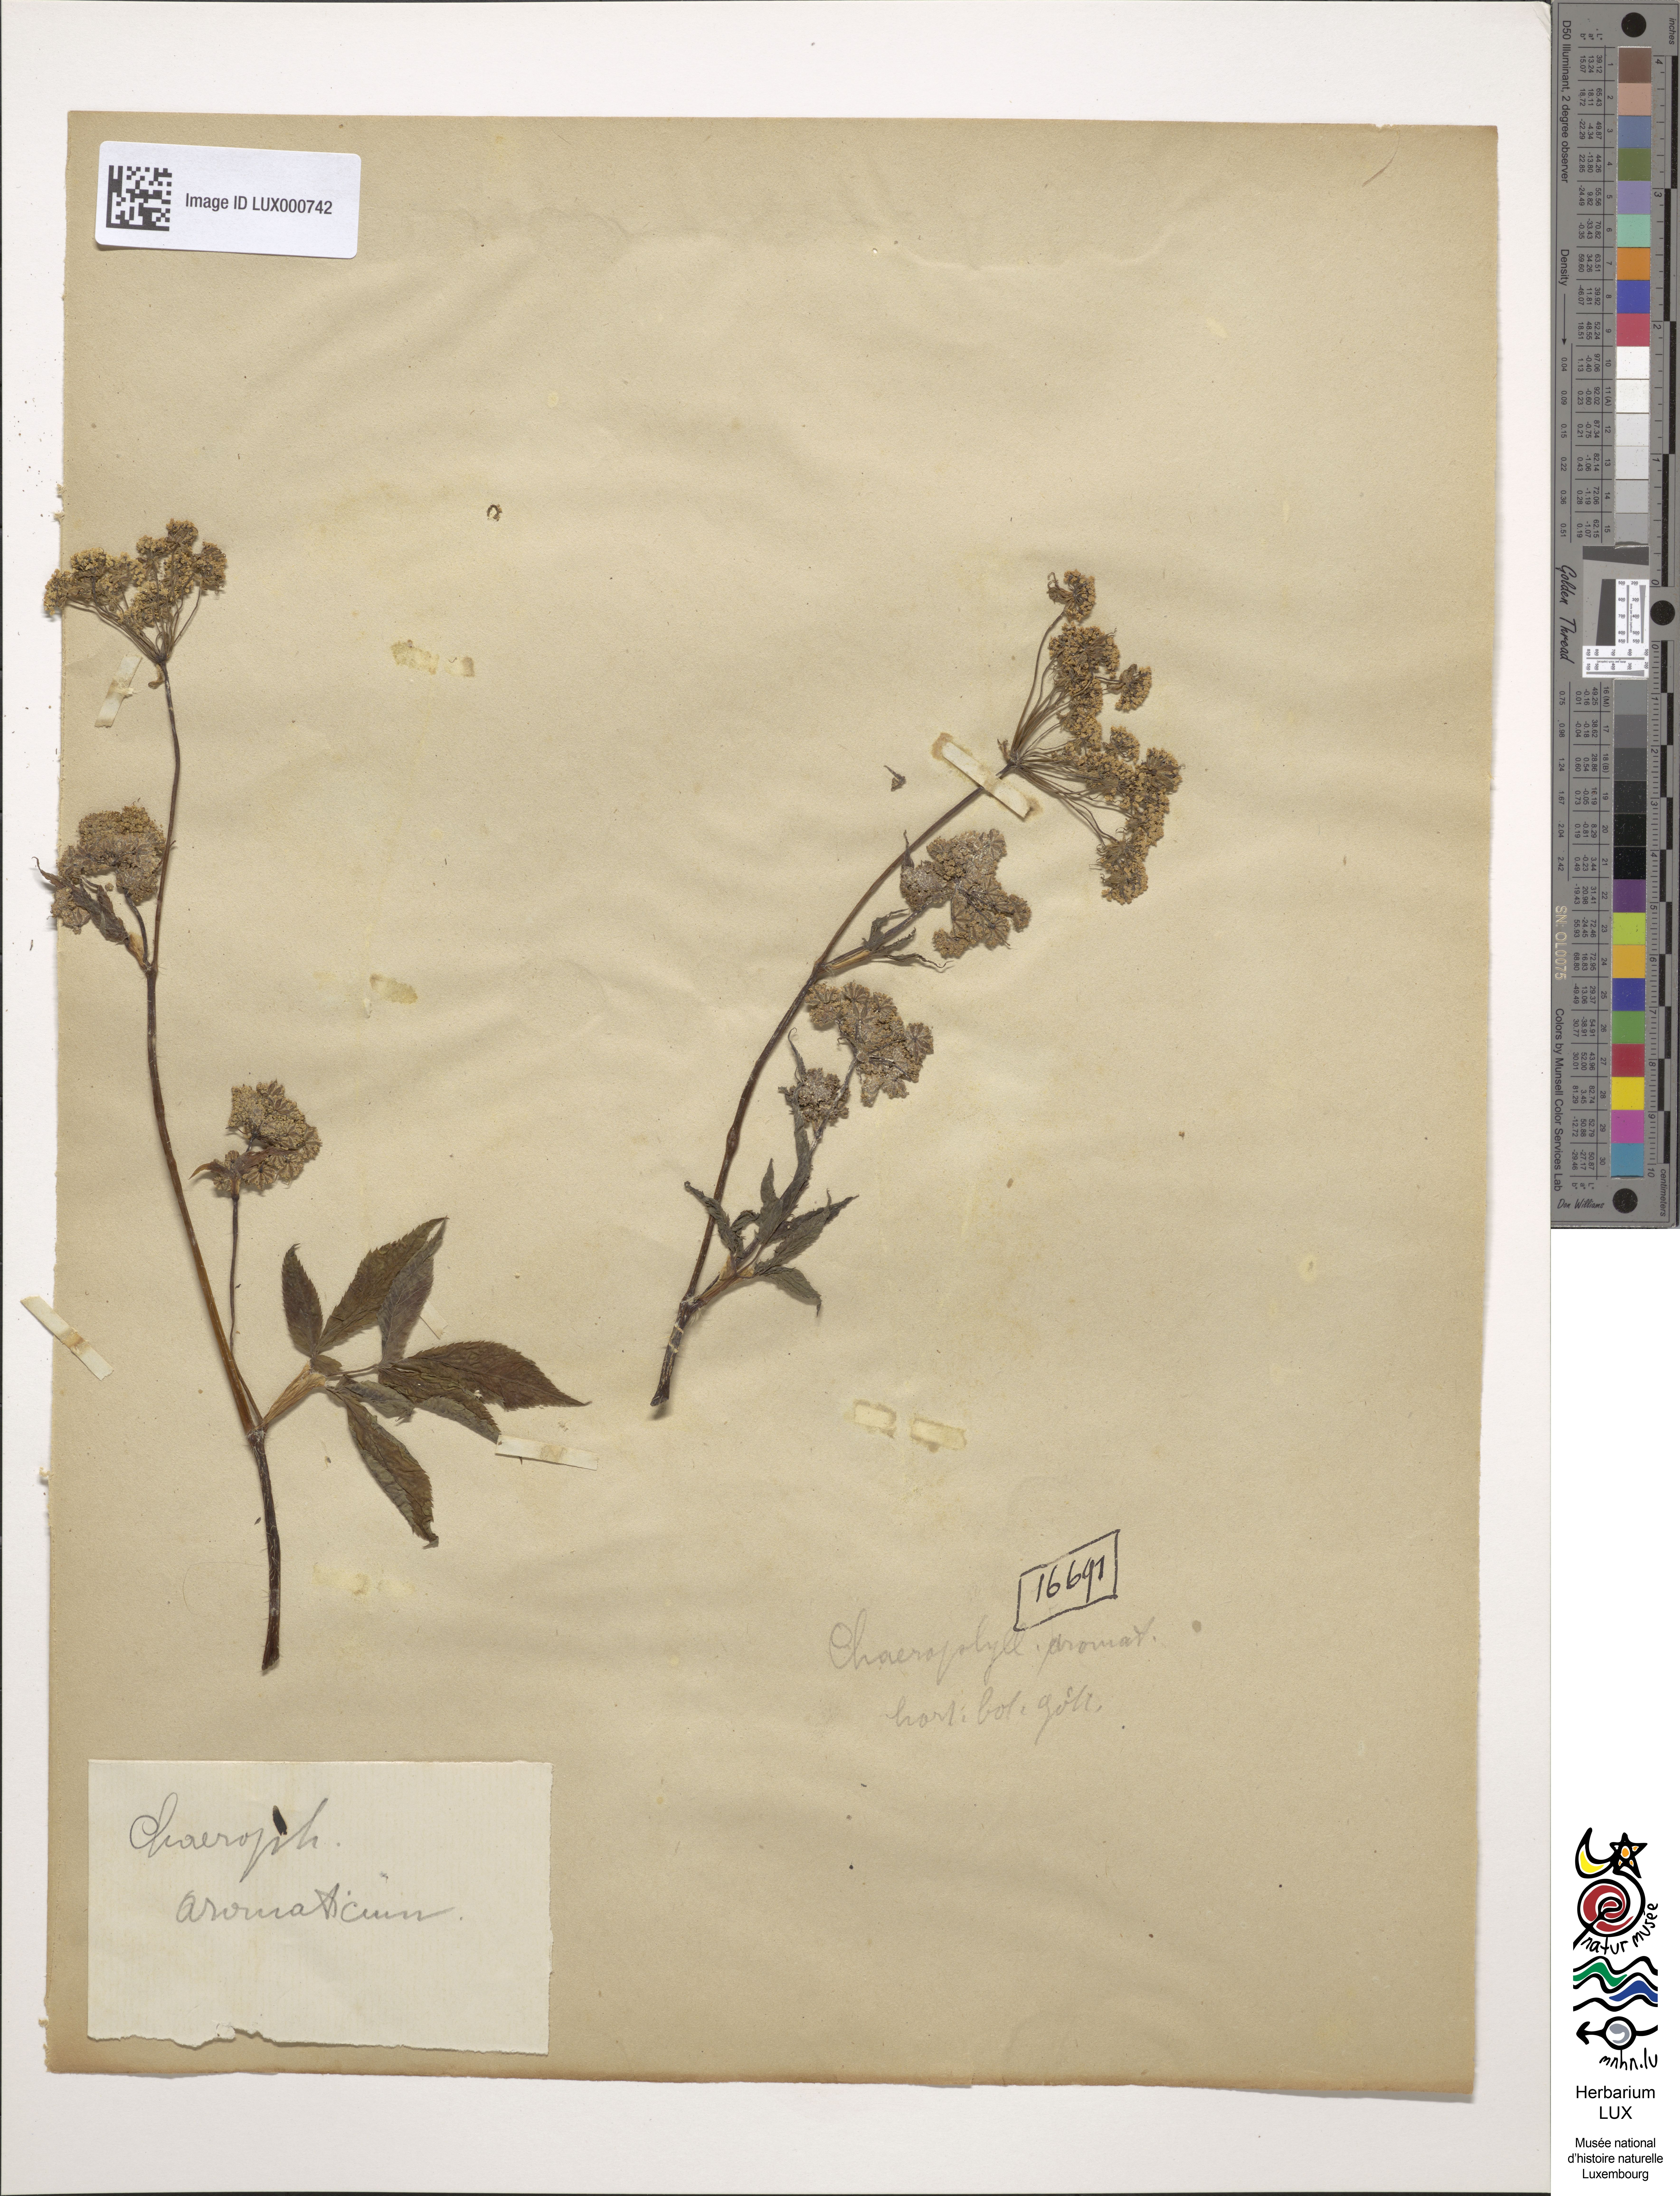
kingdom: Plantae
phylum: Tracheophyta
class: Magnoliopsida
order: Apiales
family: Apiaceae
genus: Chaerophyllum
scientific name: Chaerophyllum aromaticum
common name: Broadleaf chervil
